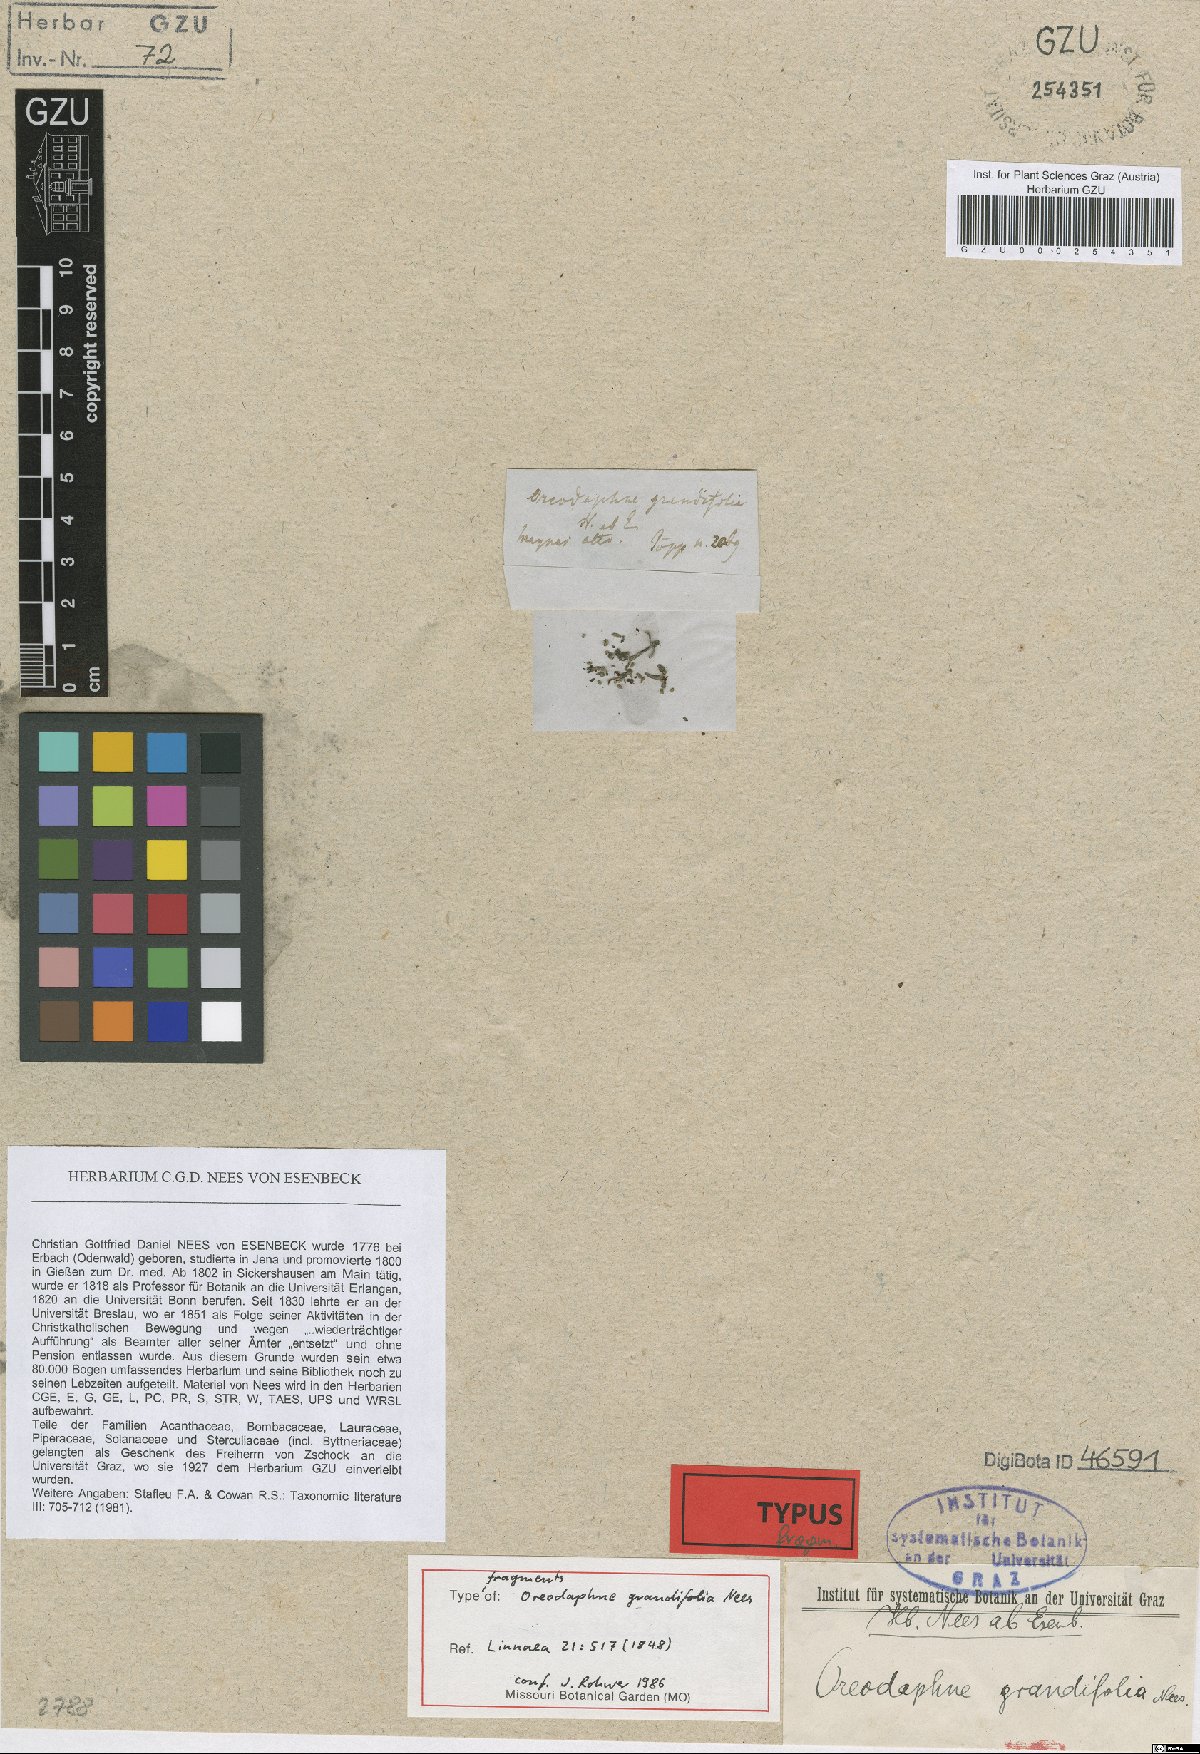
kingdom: Plantae
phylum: Tracheophyta
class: Magnoliopsida
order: Laurales
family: Lauraceae
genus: Mespilodaphne
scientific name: Mespilodaphne opifera
